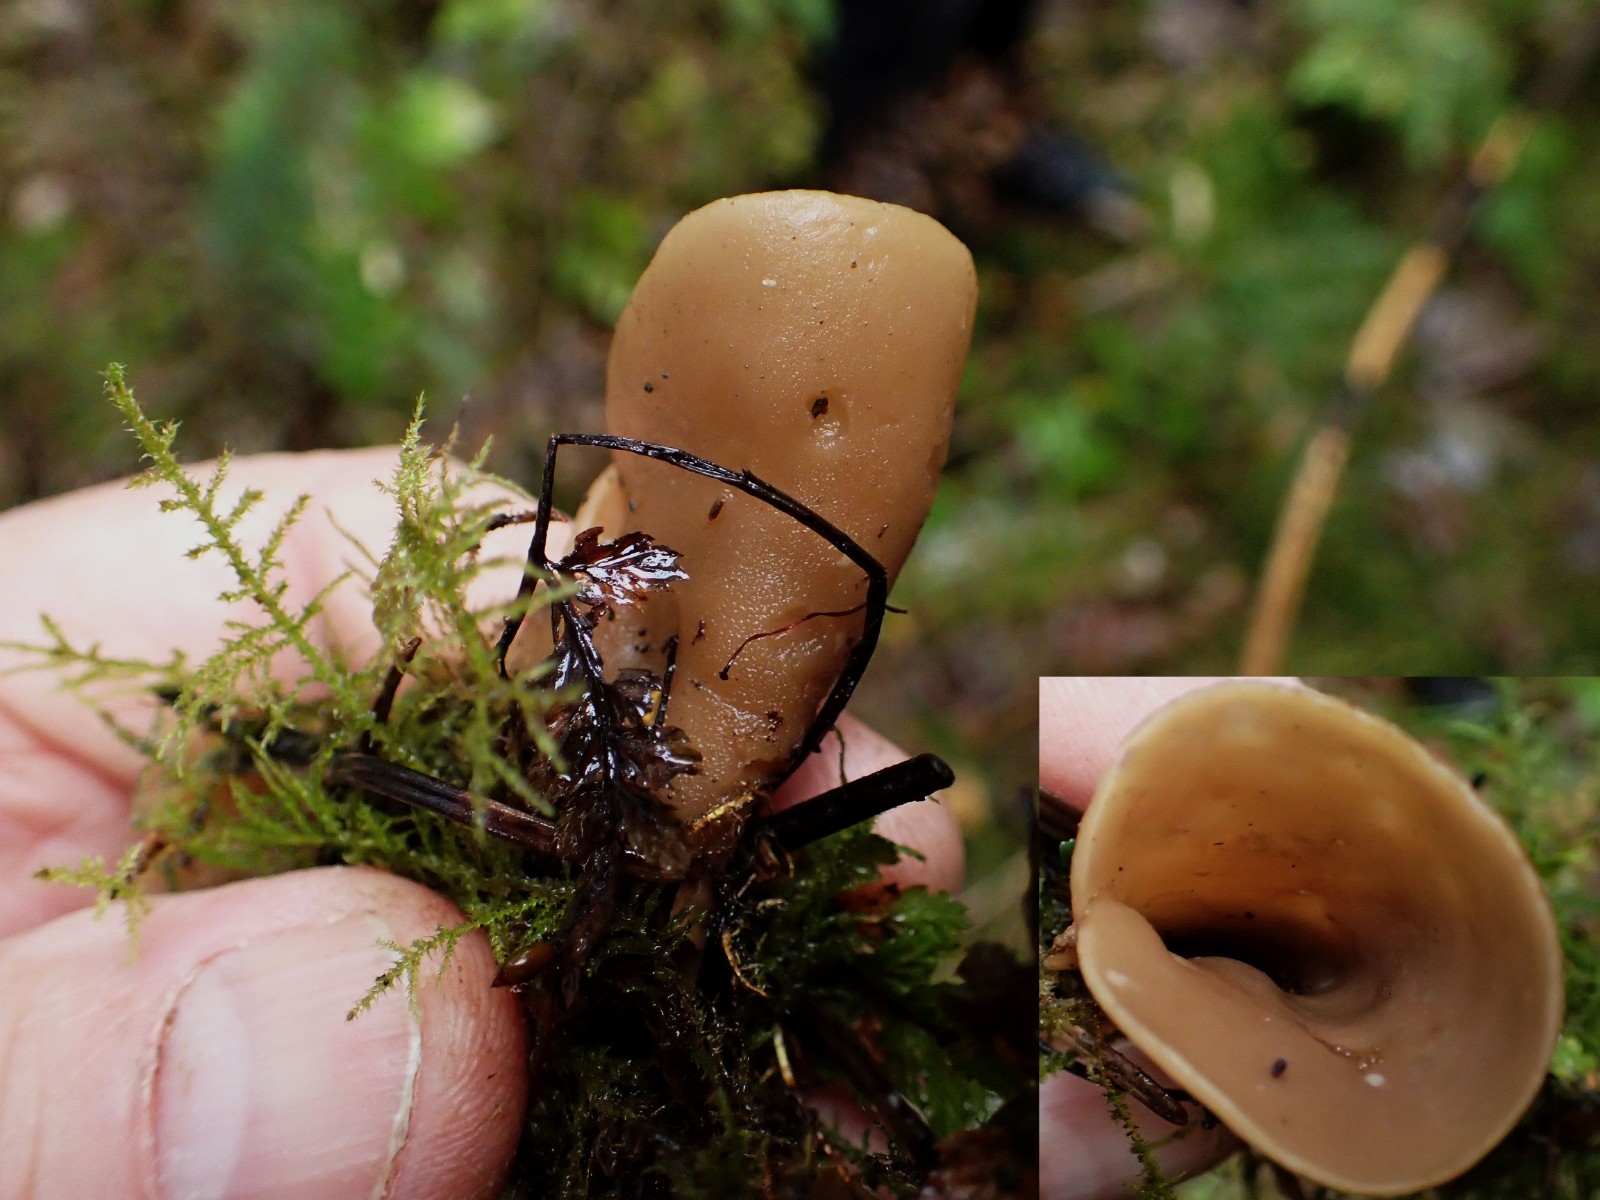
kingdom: Fungi
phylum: Ascomycota
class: Pezizomycetes
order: Pezizales
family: Otideaceae
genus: Otidea
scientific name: Otidea
